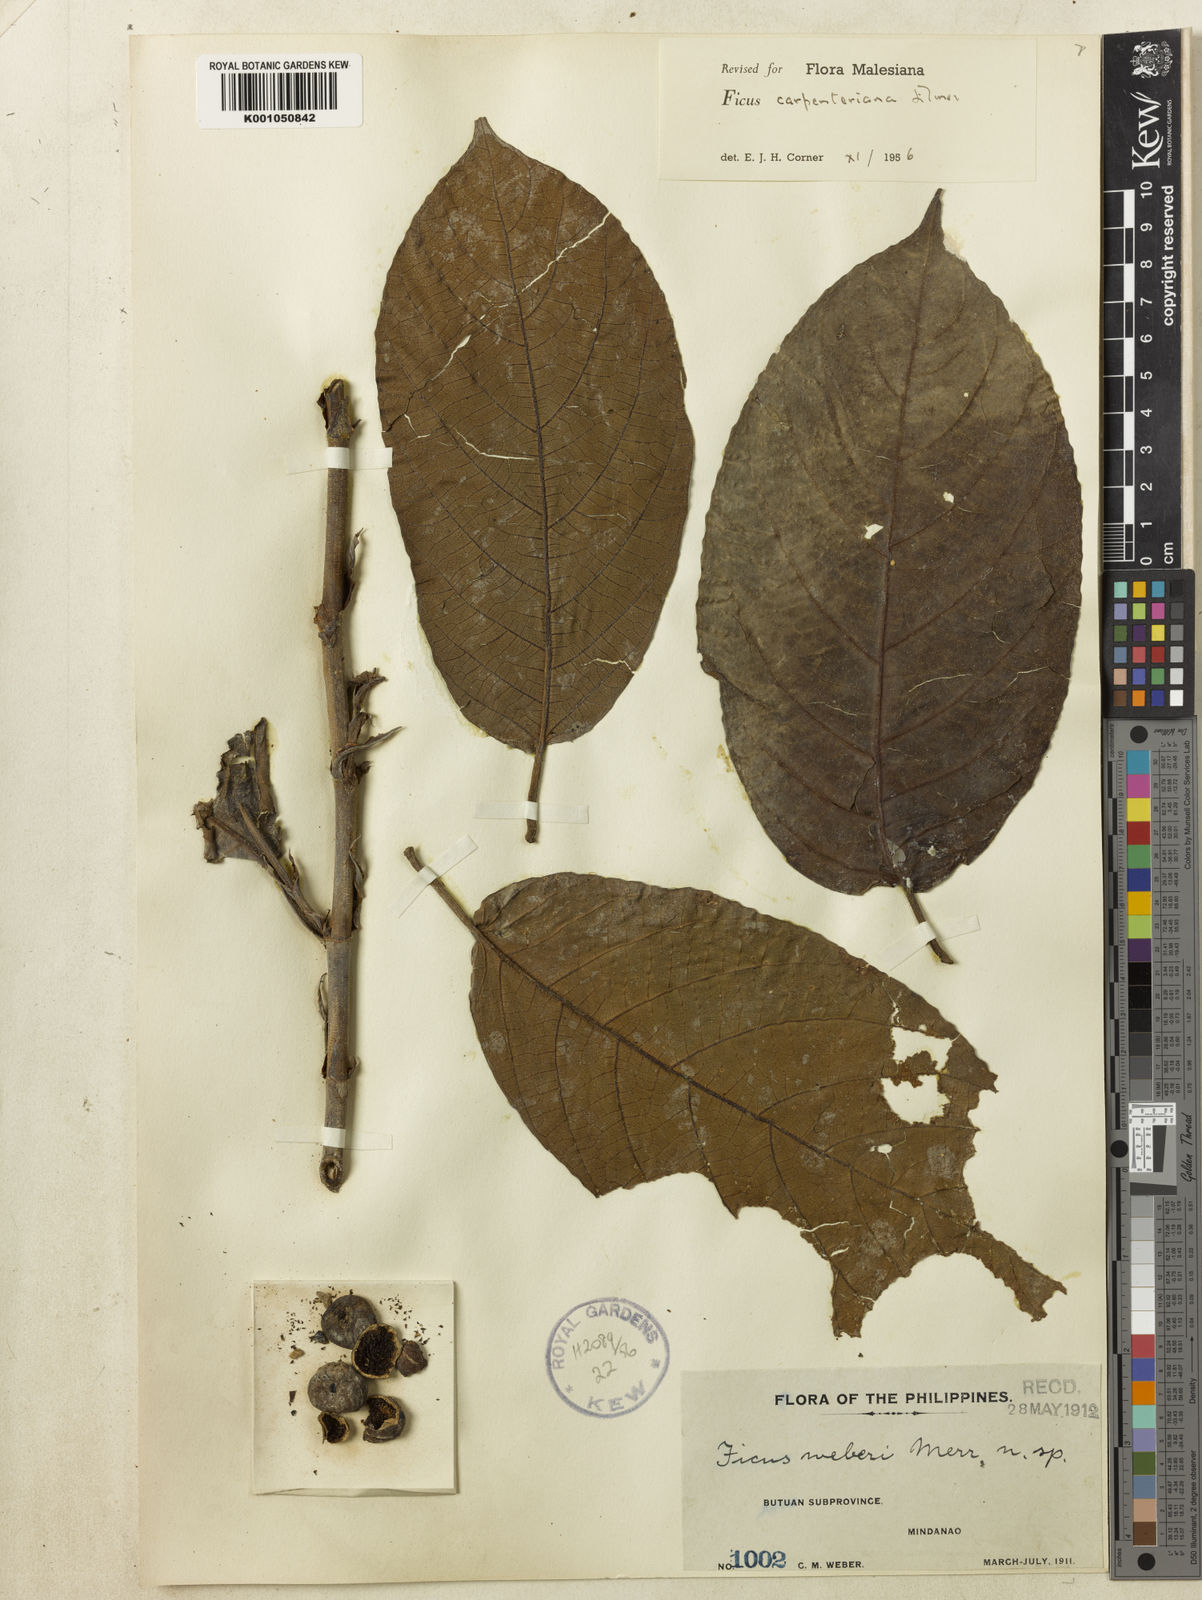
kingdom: Plantae
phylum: Tracheophyta
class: Magnoliopsida
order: Rosales
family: Moraceae
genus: Ficus
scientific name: Ficus carpenteriana
